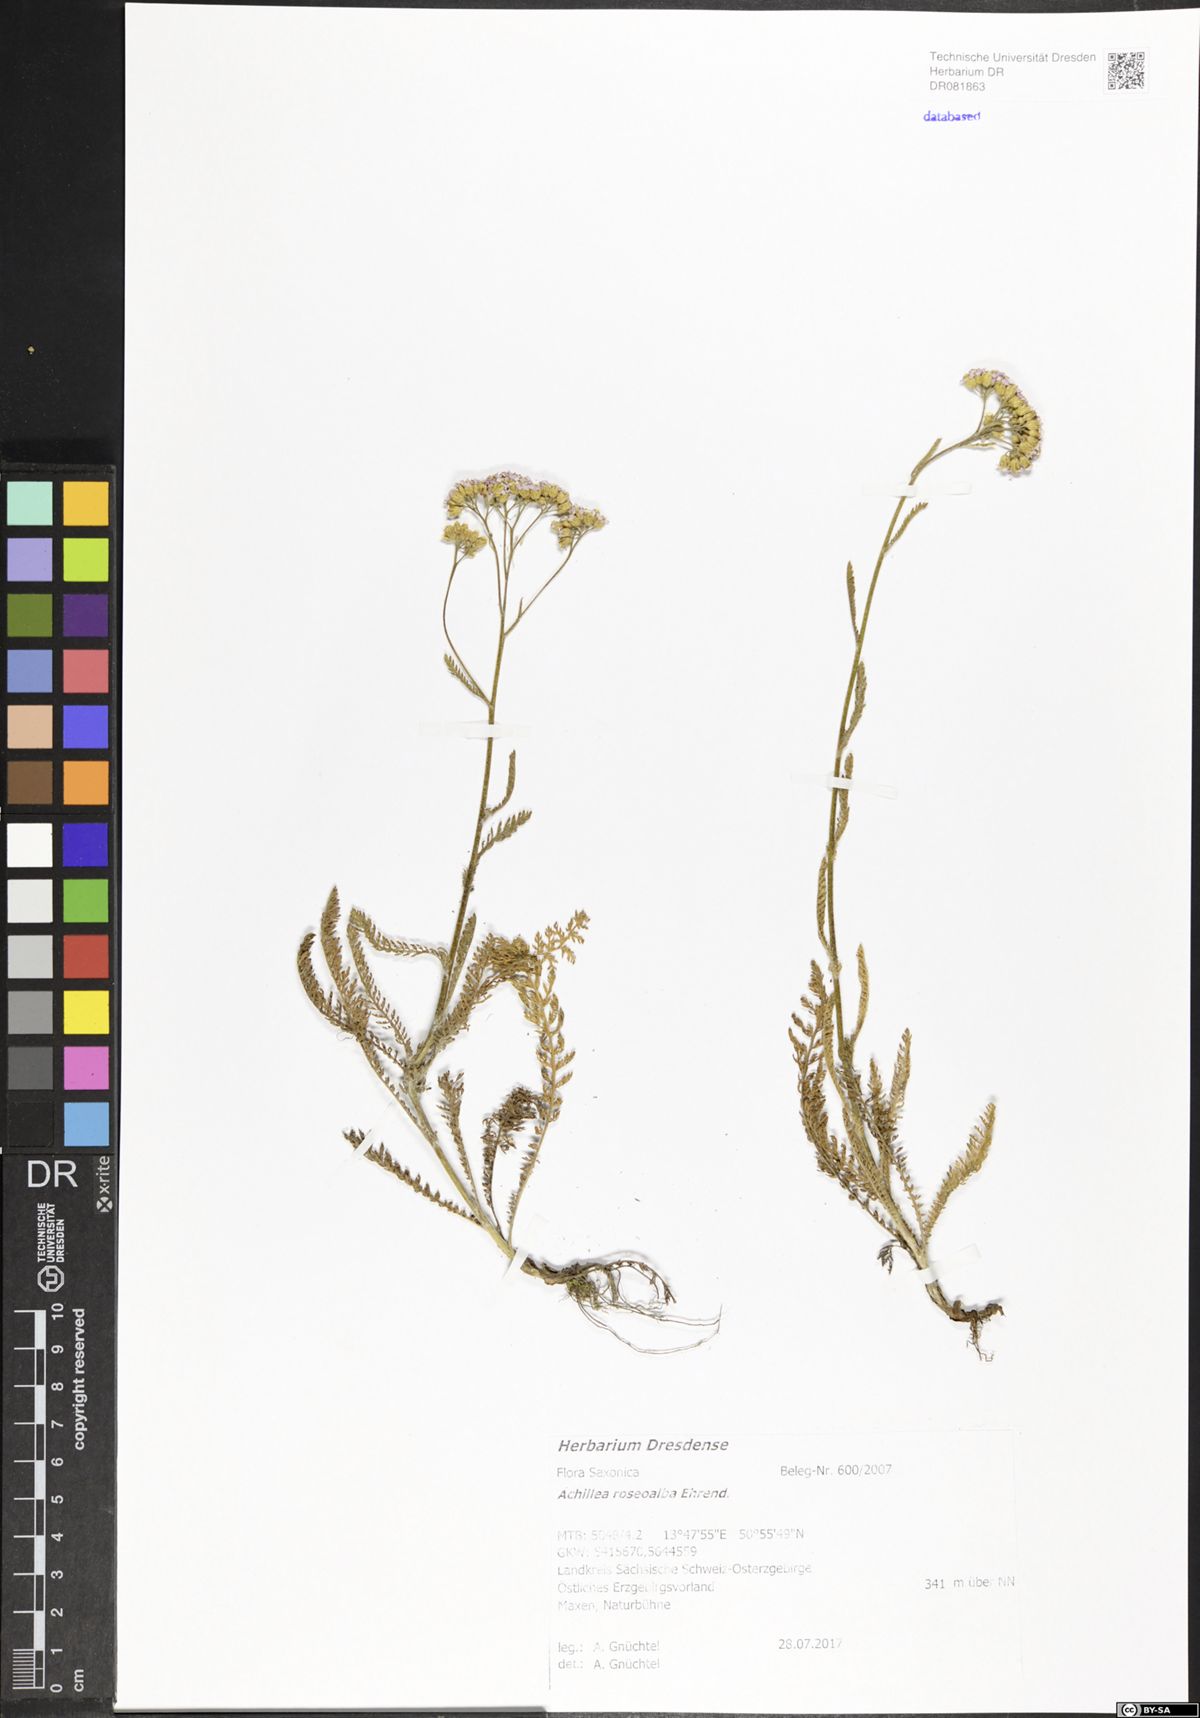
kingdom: Plantae
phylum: Tracheophyta
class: Magnoliopsida
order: Asterales
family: Asteraceae
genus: Achillea
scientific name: Achillea roseoalba
